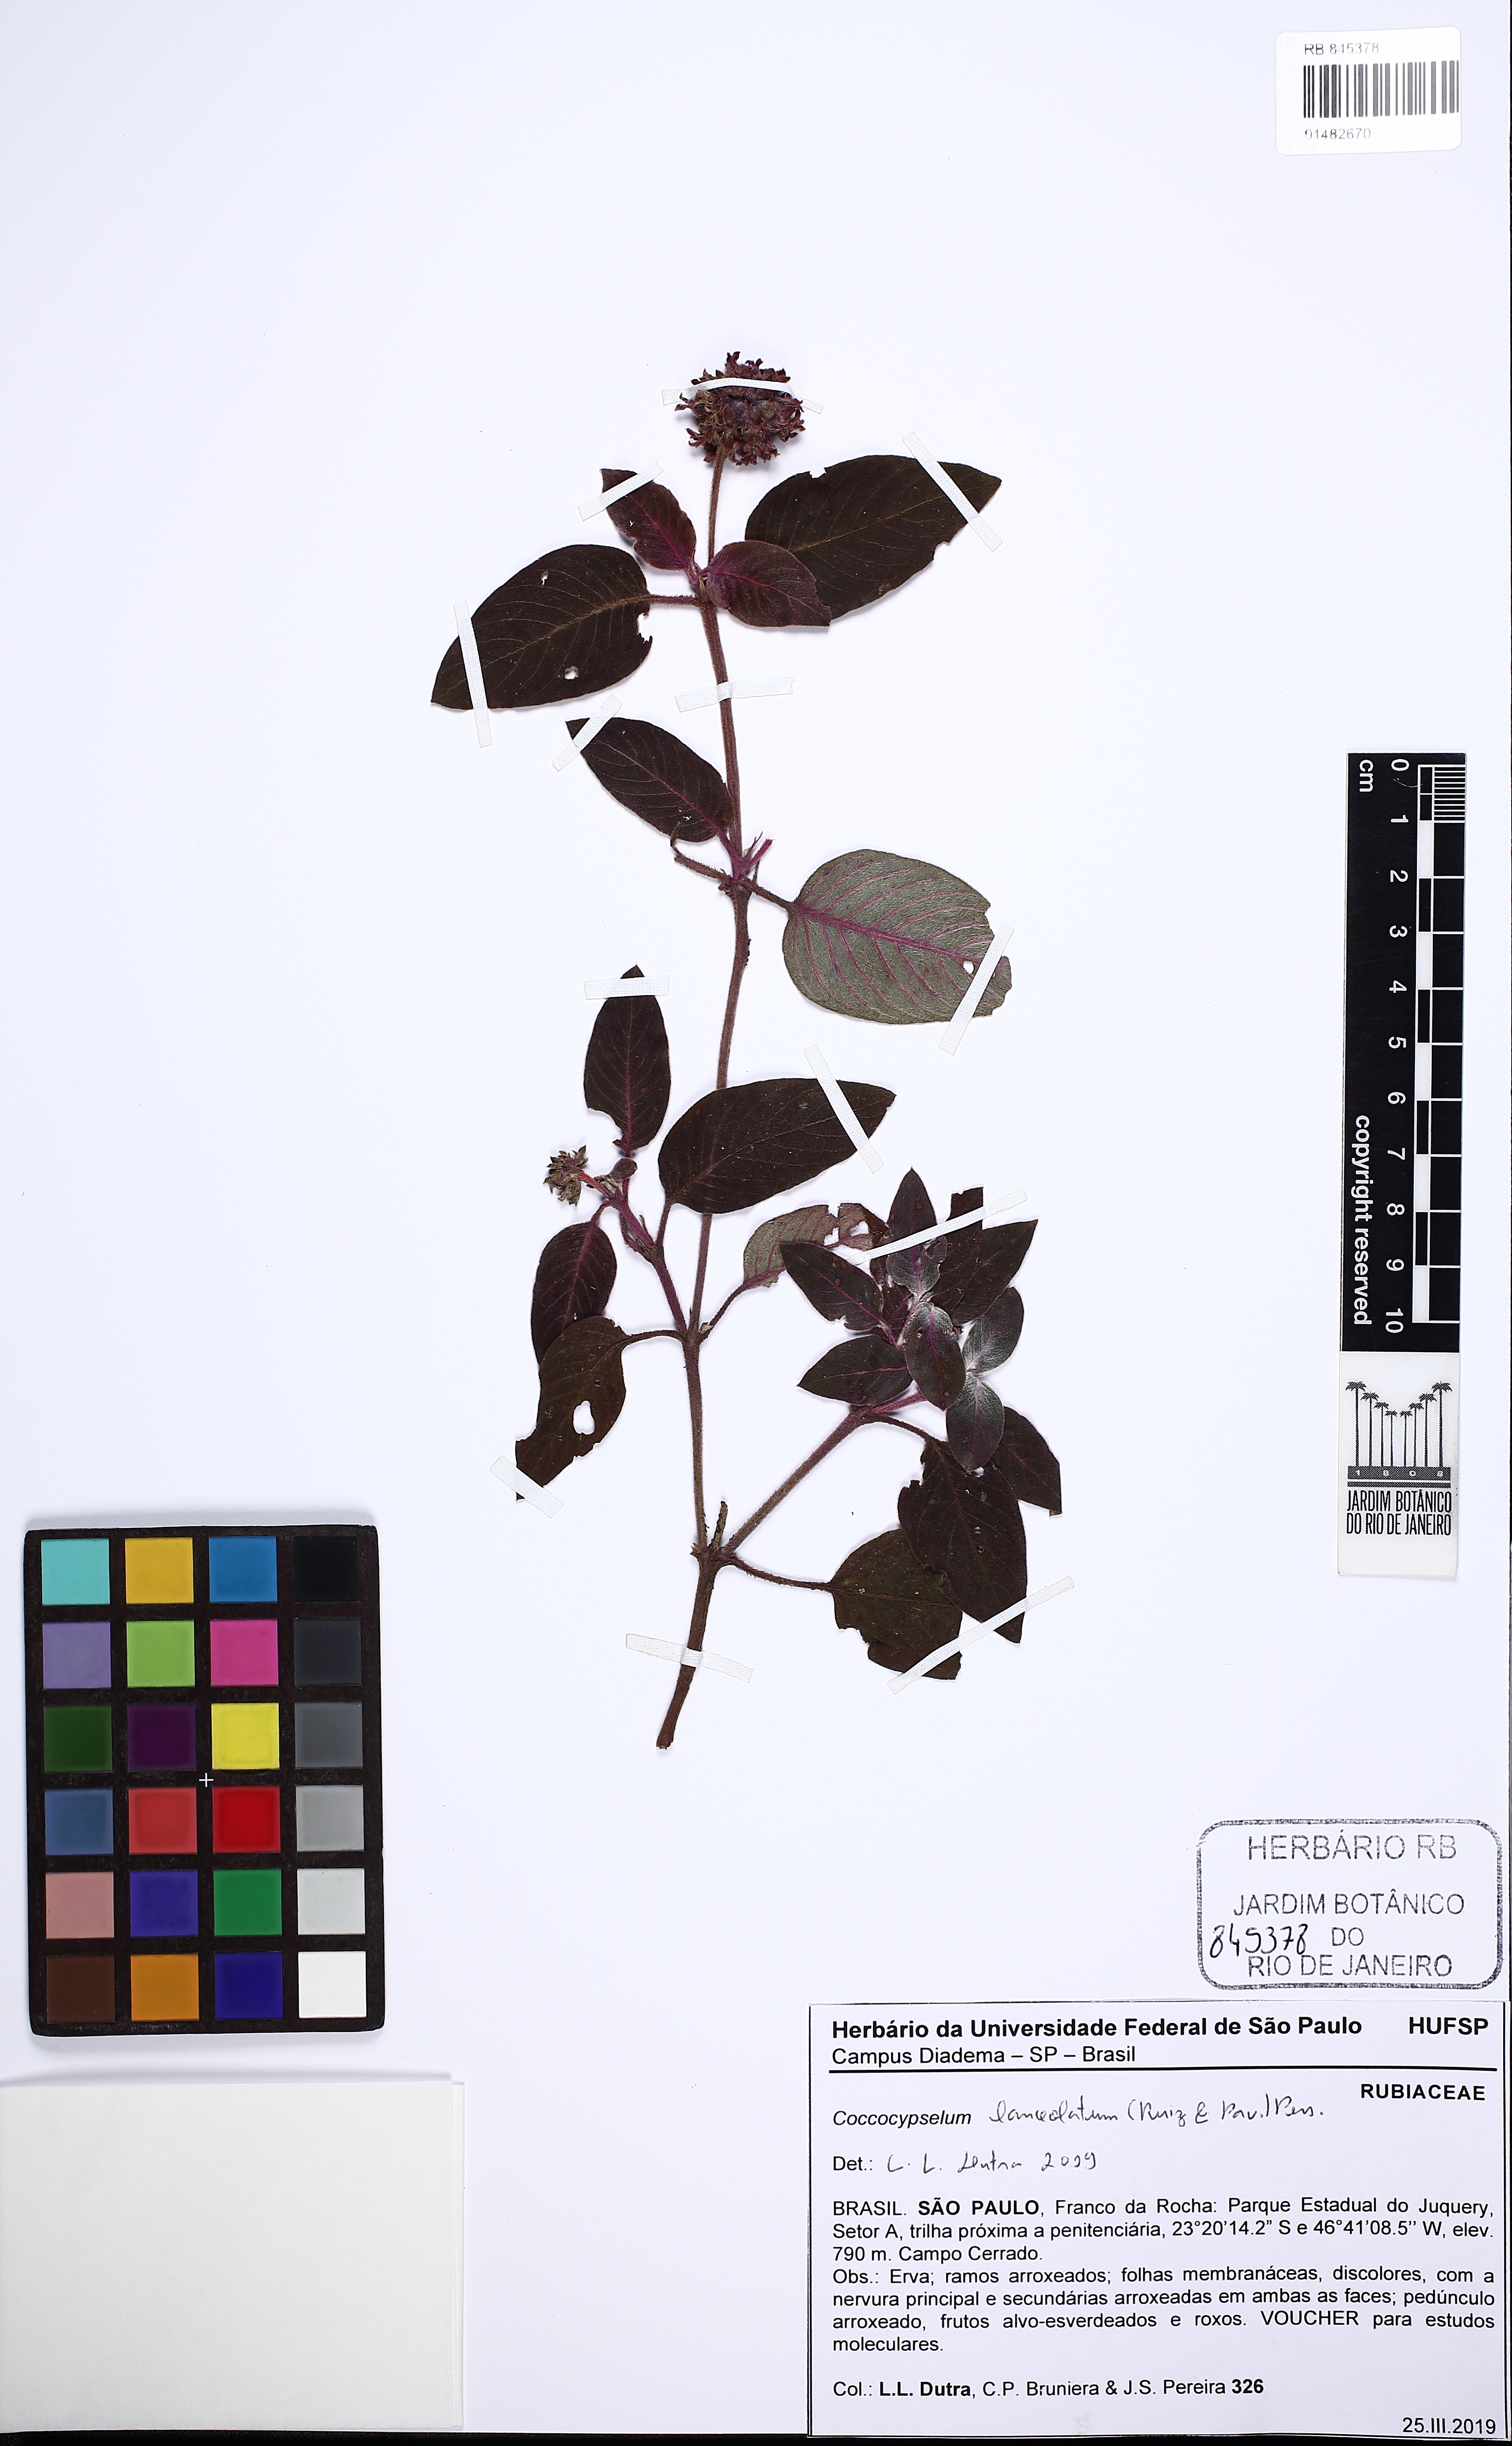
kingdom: Plantae
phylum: Tracheophyta
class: Magnoliopsida
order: Gentianales
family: Rubiaceae
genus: Coccocypselum
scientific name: Coccocypselum lanceolatum
